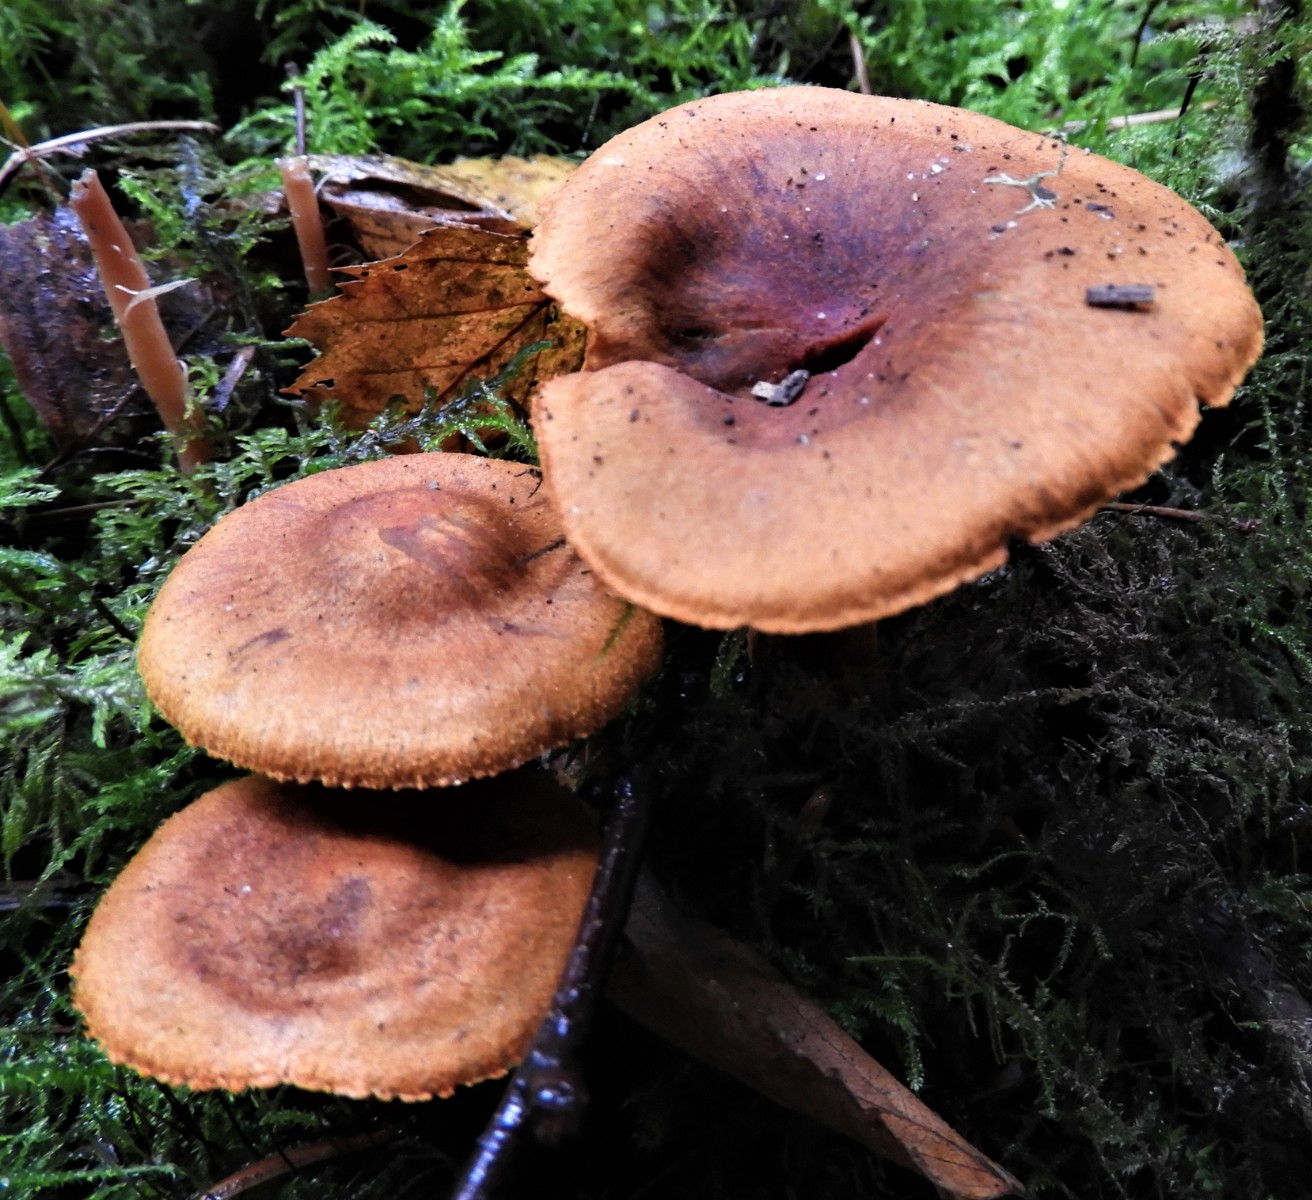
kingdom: Fungi
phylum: Basidiomycota
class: Agaricomycetes
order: Agaricales
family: Cortinariaceae
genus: Cortinarius
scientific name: Cortinarius
